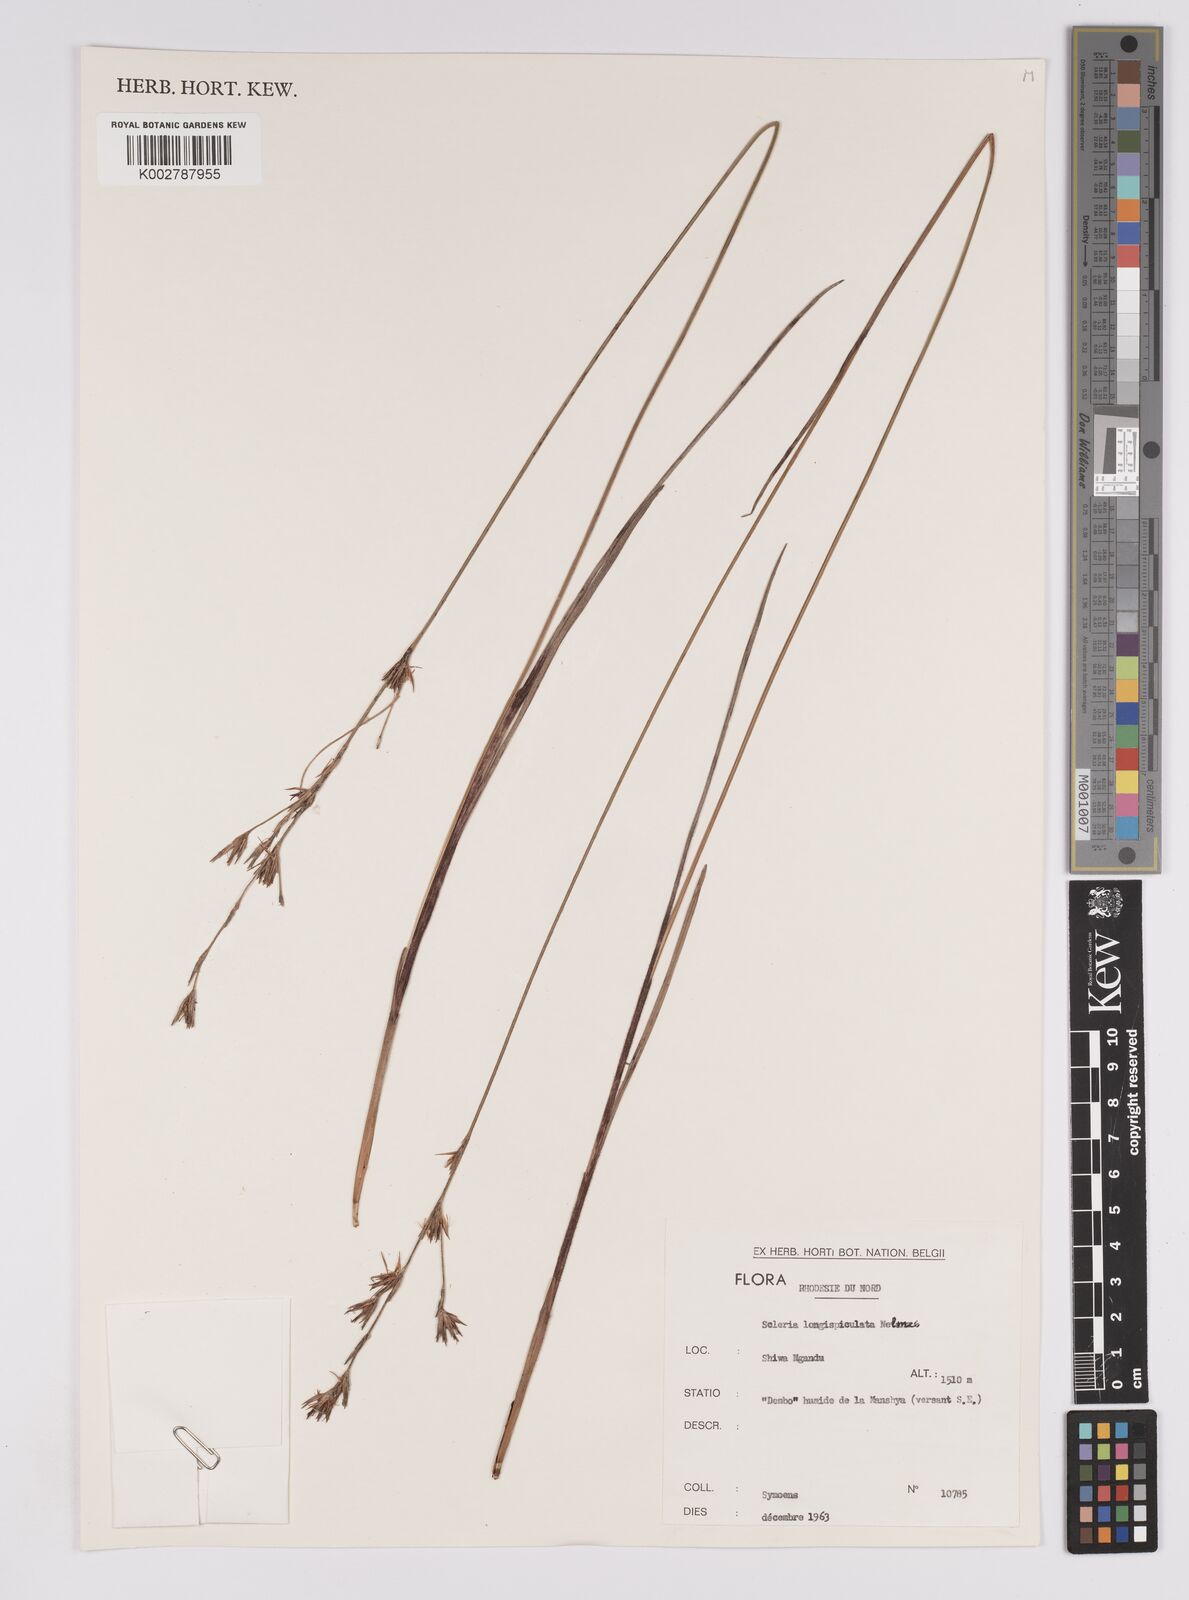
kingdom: Plantae
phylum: Tracheophyta
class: Liliopsida
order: Poales
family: Cyperaceae
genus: Scleria
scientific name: Scleria longispiculata
